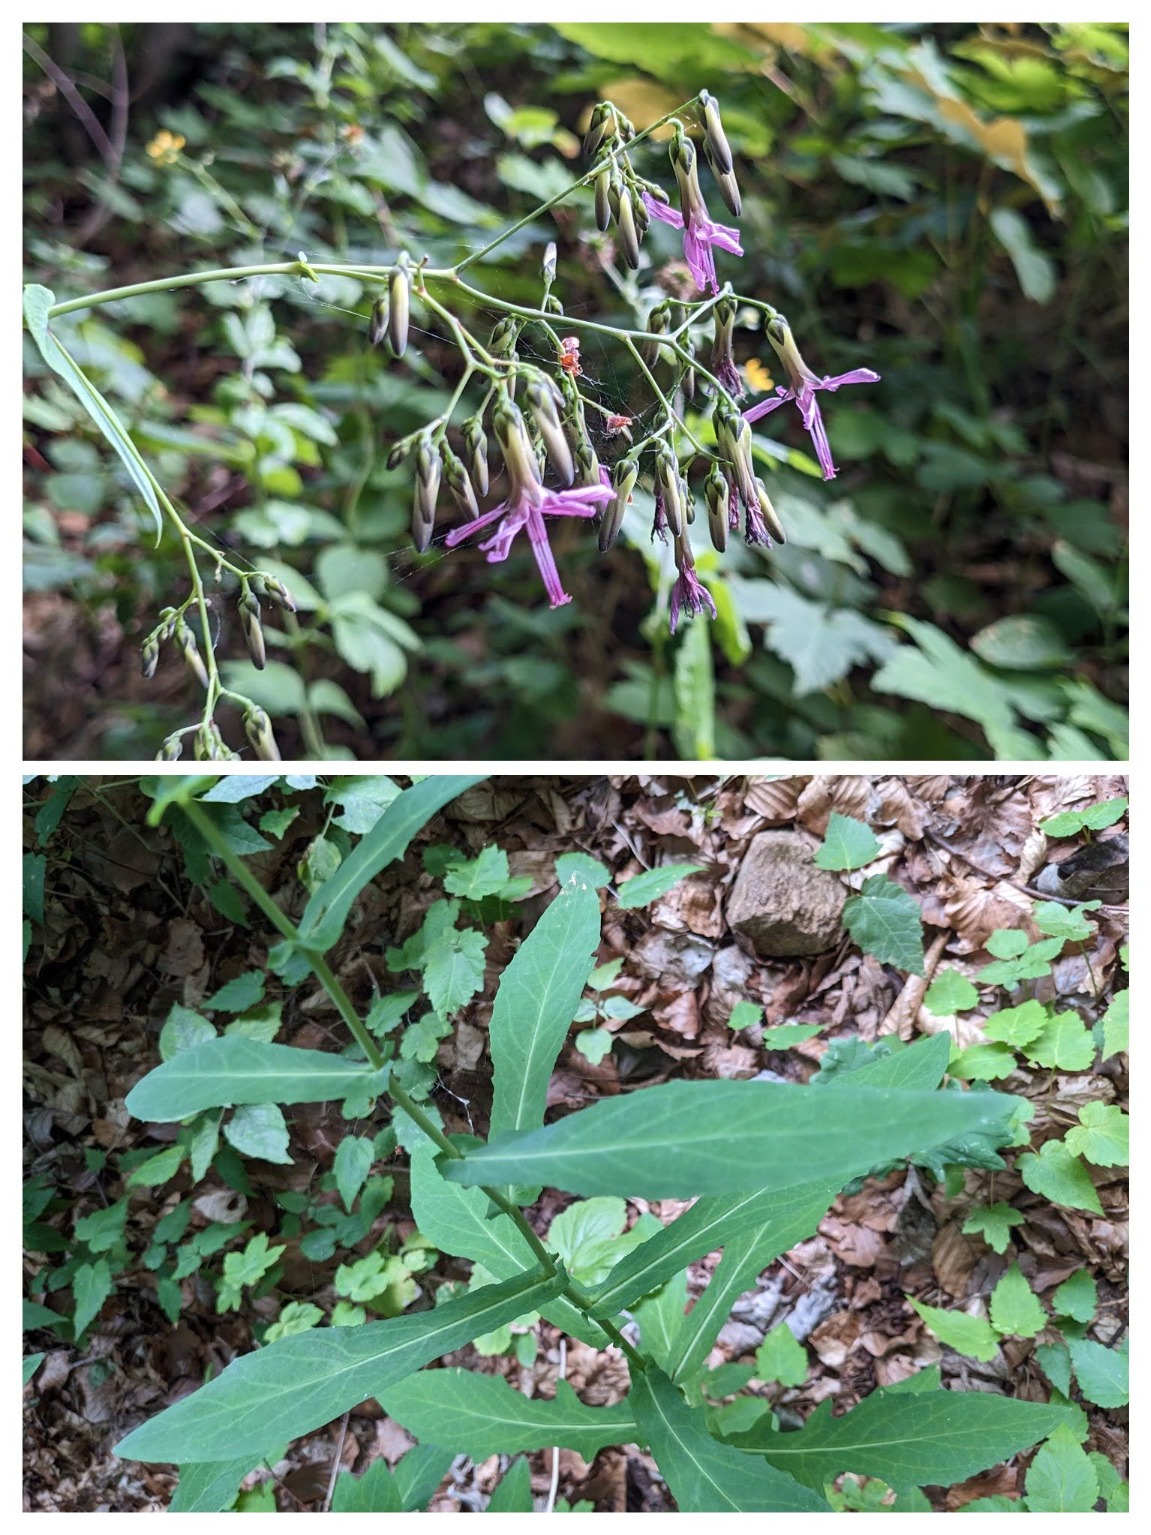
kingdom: Plantae
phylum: Tracheophyta
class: Magnoliopsida
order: Asterales
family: Asteraceae
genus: Prenanthes
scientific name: Prenanthes purpurea
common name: Hængekurv
